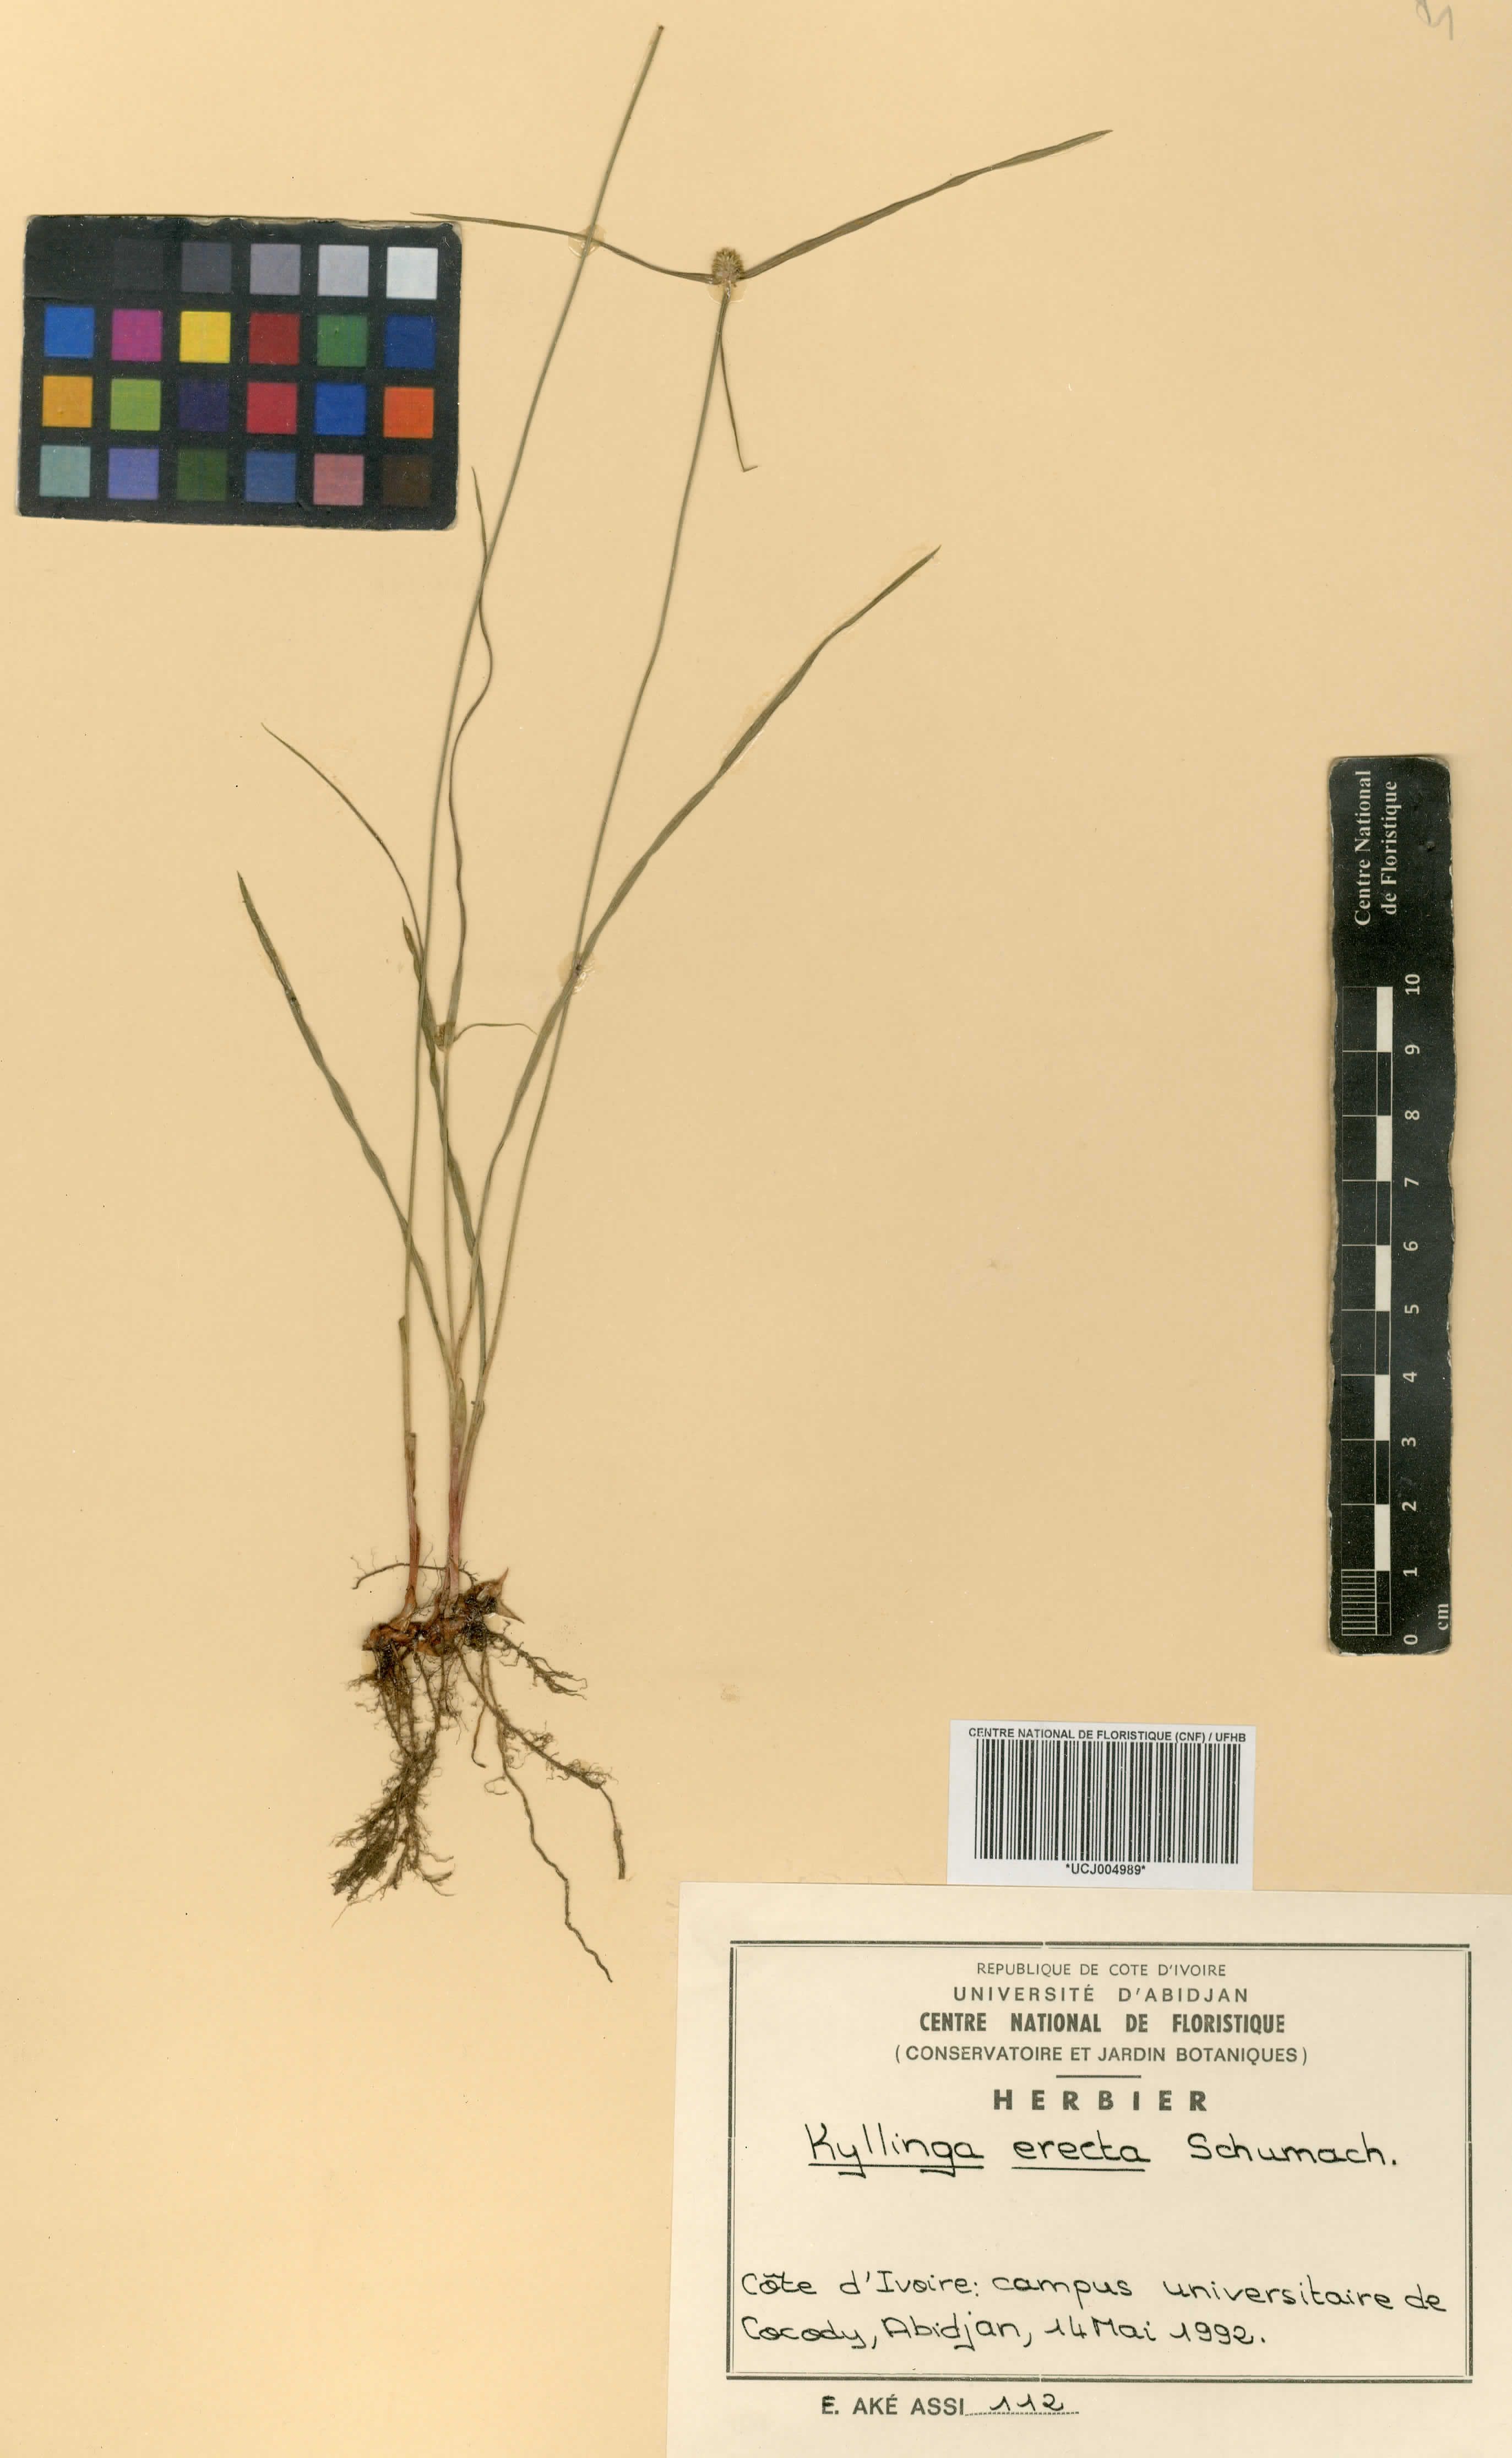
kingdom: Plantae
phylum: Tracheophyta
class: Liliopsida
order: Poales
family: Cyperaceae
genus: Cyperus
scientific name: Cyperus erectus
